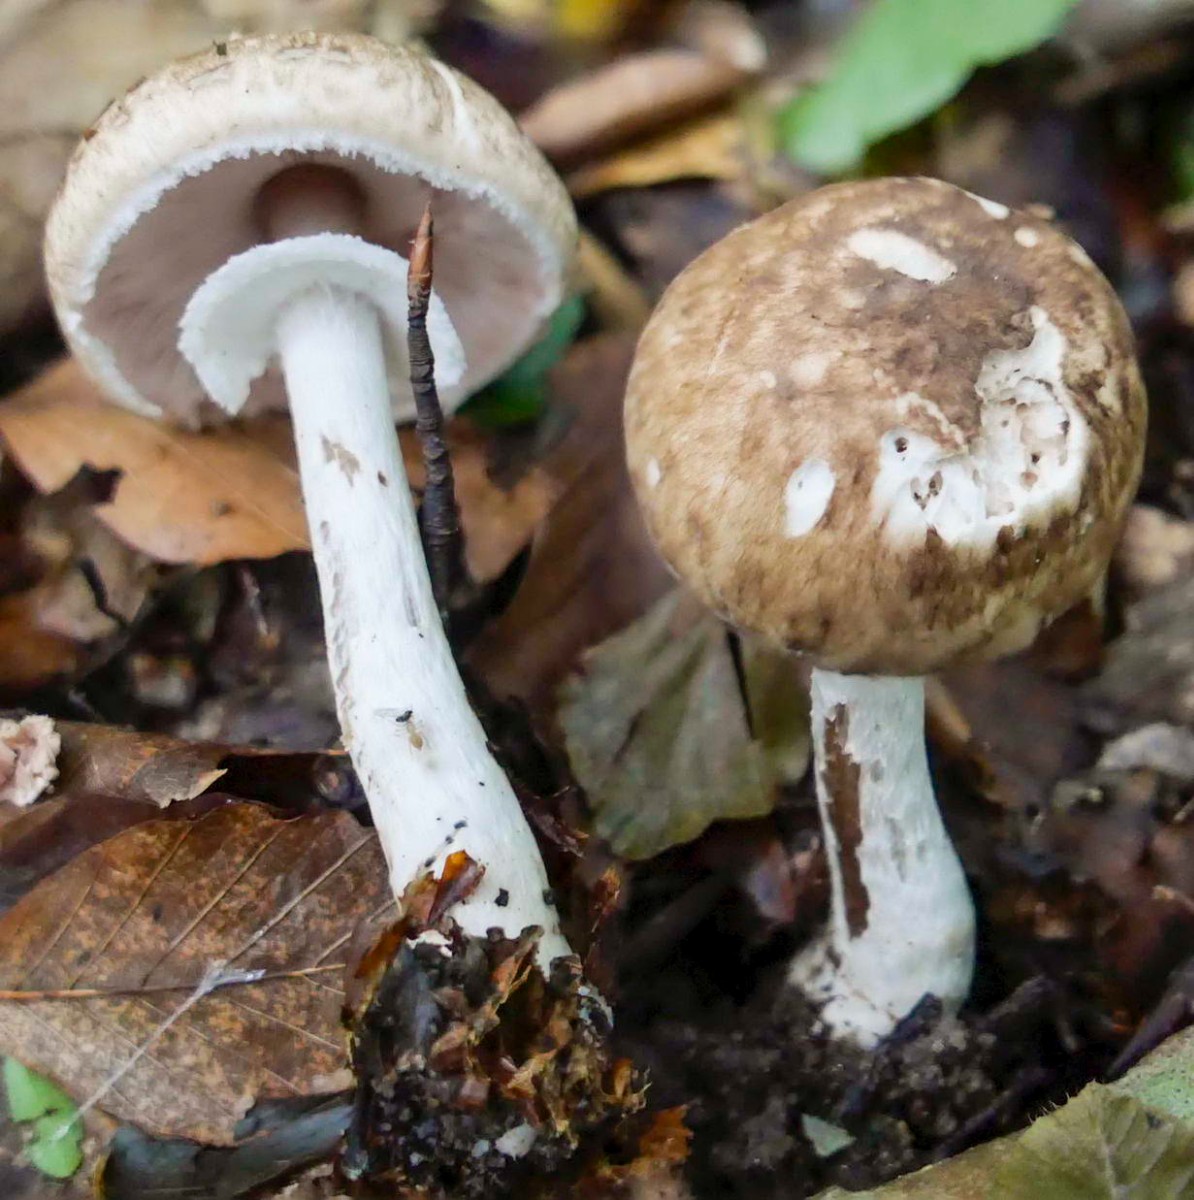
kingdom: Fungi
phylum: Basidiomycota
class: Agaricomycetes
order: Agaricales
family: Agaricaceae
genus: Agaricus
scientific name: Agaricus langei
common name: stor blod-champignon
